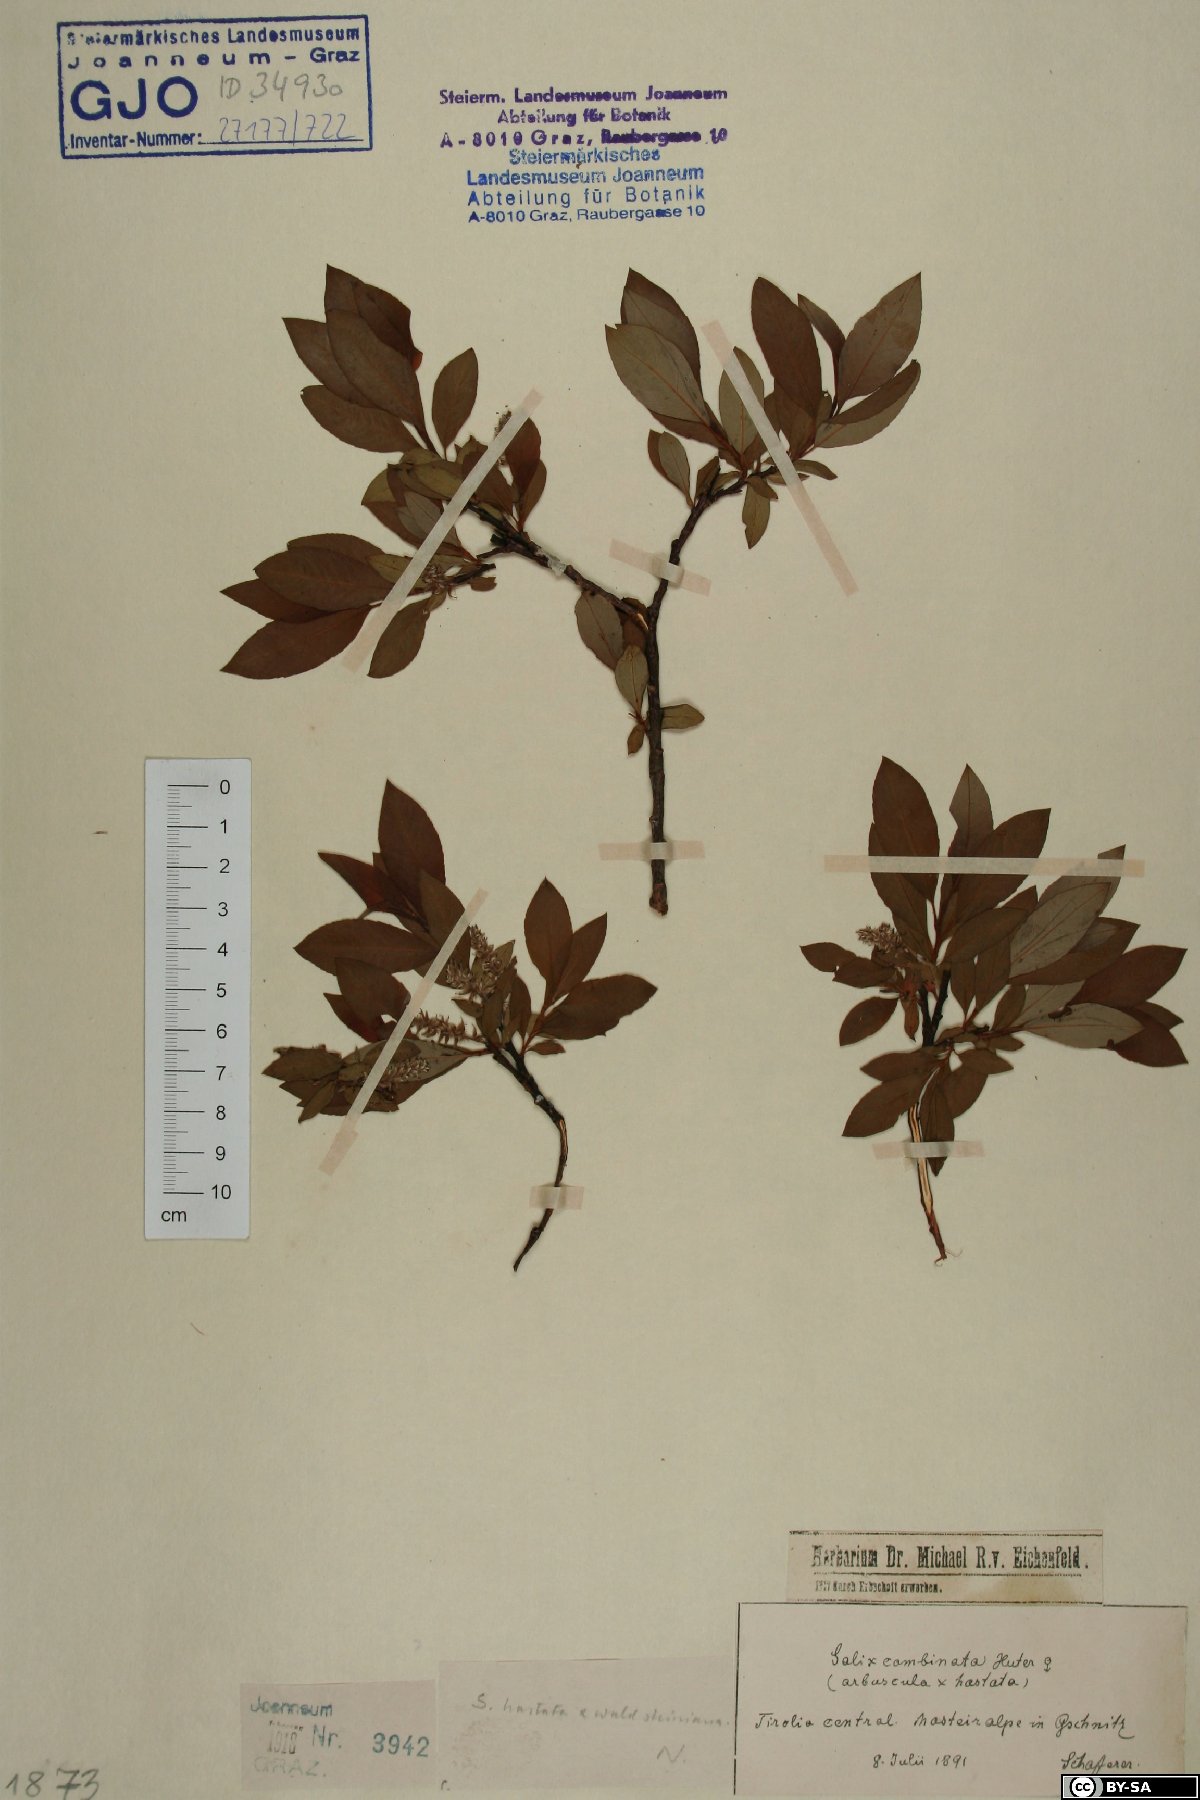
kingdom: Plantae
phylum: Tracheophyta
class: Magnoliopsida
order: Malpighiales
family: Salicaceae
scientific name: Salicaceae
